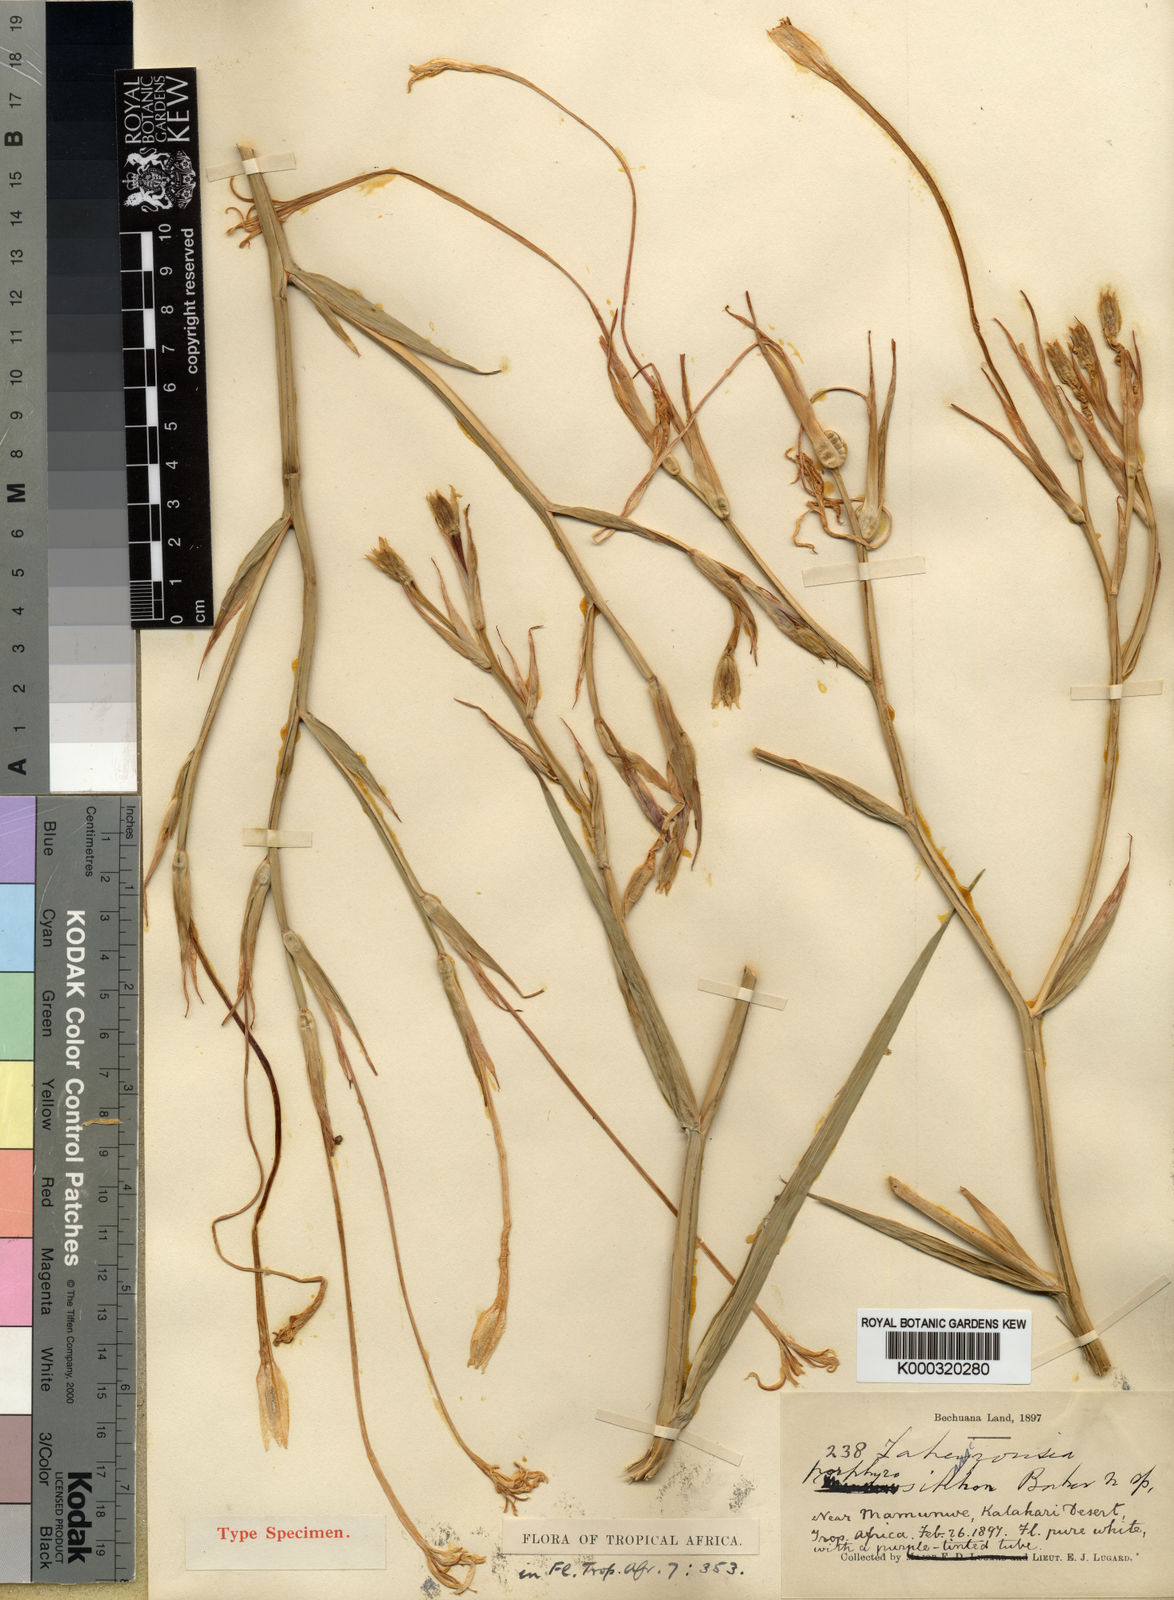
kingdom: Plantae
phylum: Tracheophyta
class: Liliopsida
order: Asparagales
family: Iridaceae
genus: Afrosolen
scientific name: Afrosolen schimperi
